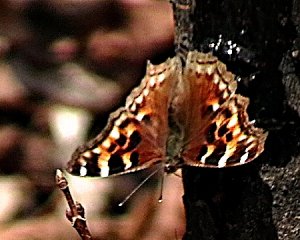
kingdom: Animalia
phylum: Arthropoda
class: Insecta
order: Lepidoptera
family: Nymphalidae
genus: Polygonia
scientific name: Polygonia vaualbum
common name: Compton Tortoiseshell
